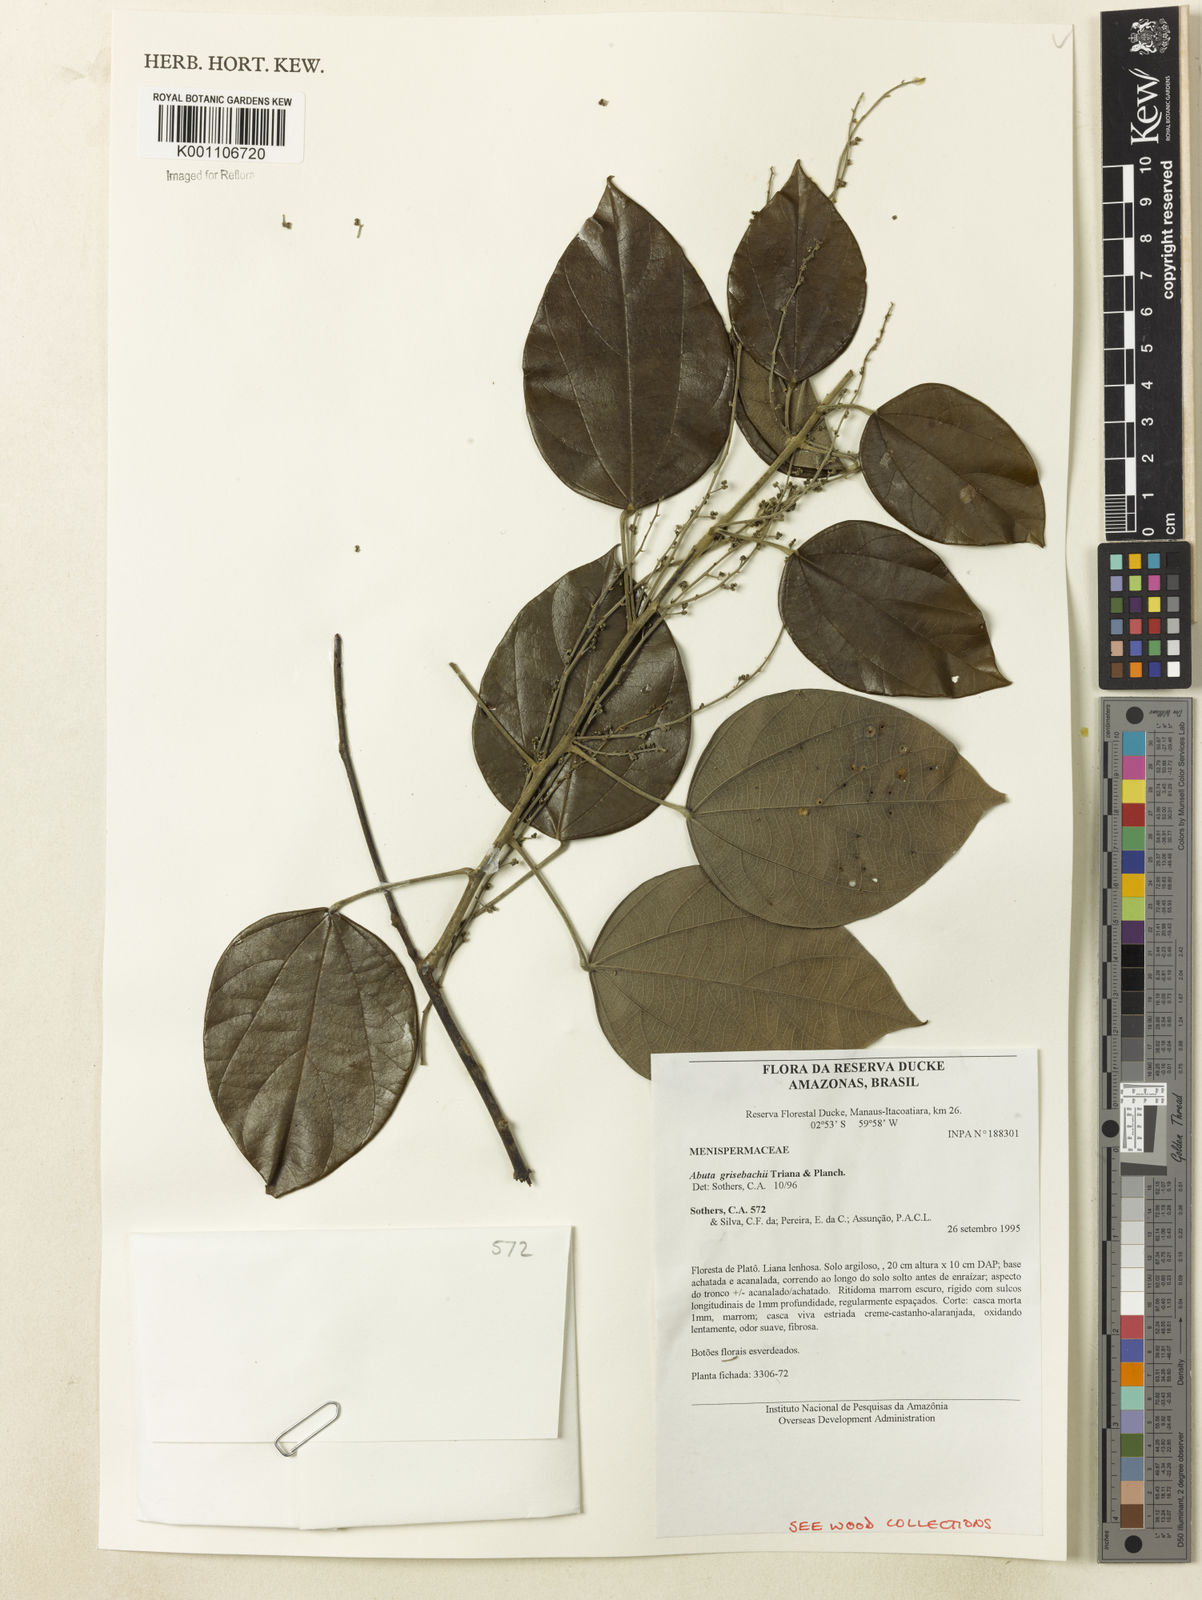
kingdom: Plantae
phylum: Tracheophyta
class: Magnoliopsida
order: Ranunculales
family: Menispermaceae
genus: Abuta
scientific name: Abuta grisebachii
